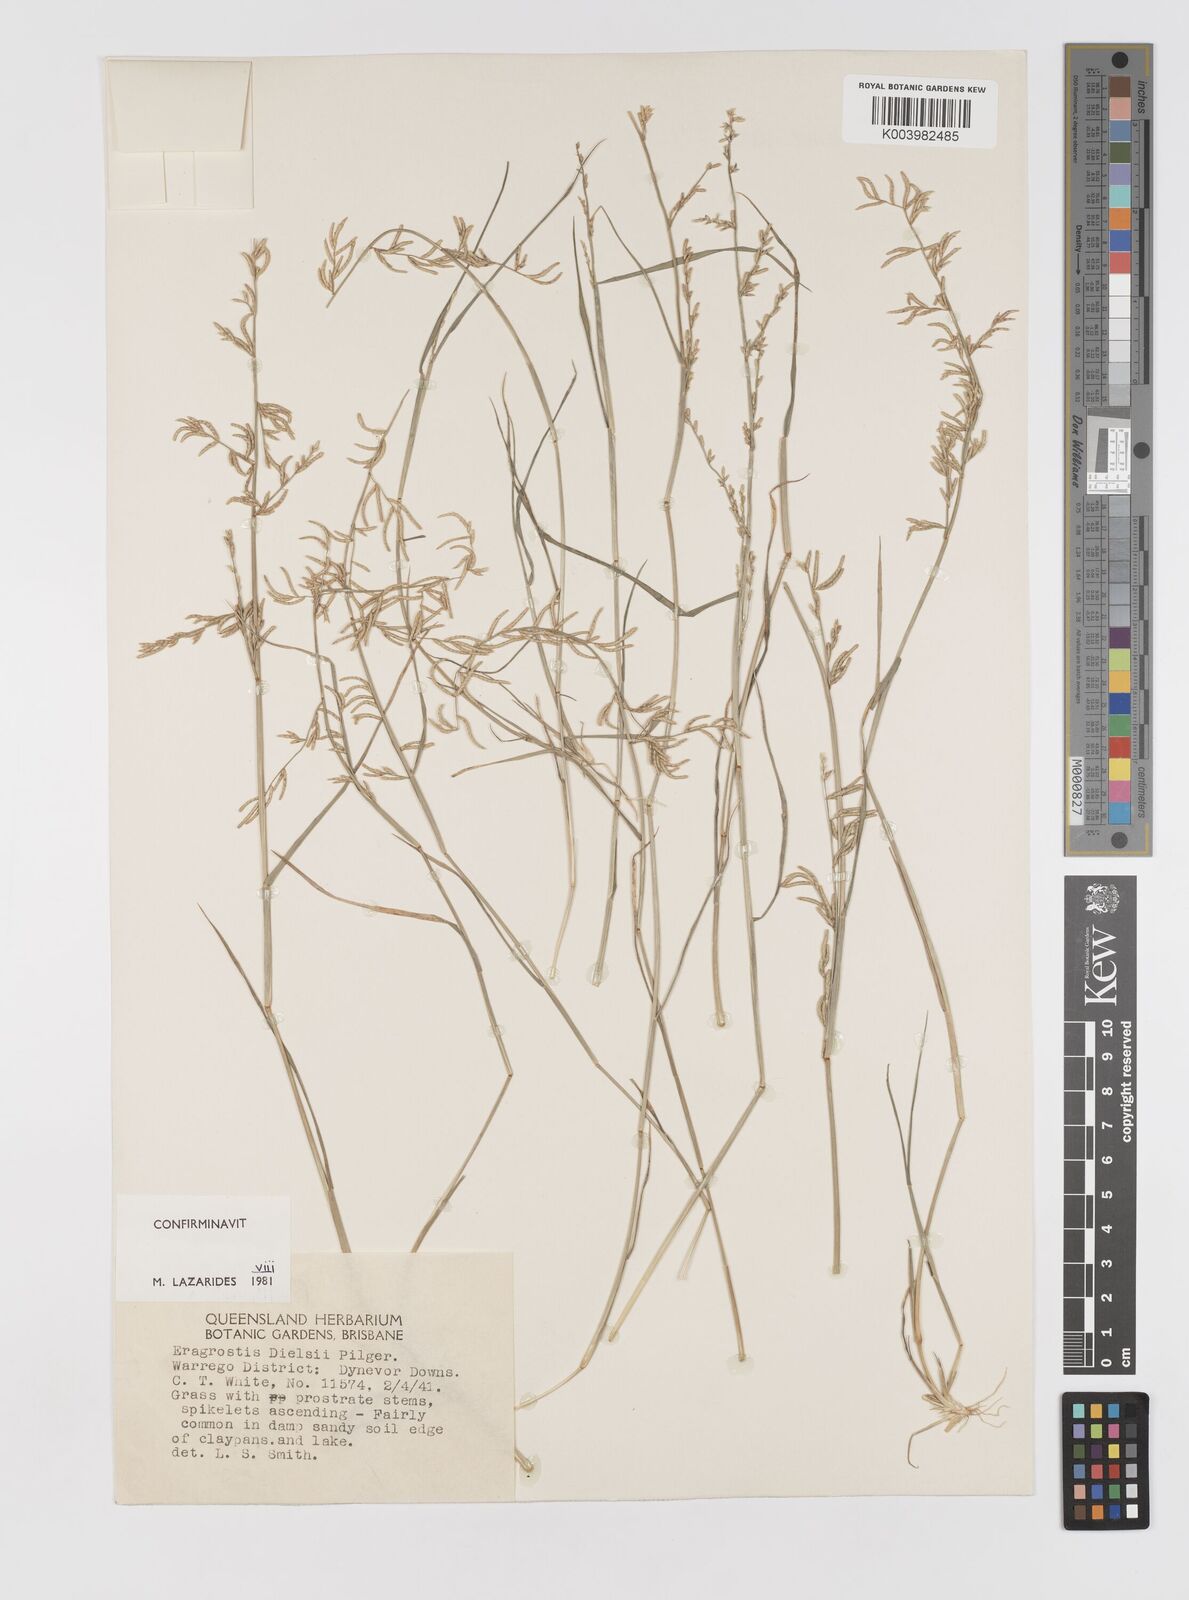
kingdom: Plantae
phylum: Tracheophyta
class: Liliopsida
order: Poales
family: Poaceae
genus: Eragrostis
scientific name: Eragrostis dielsii
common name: Lovegrass
